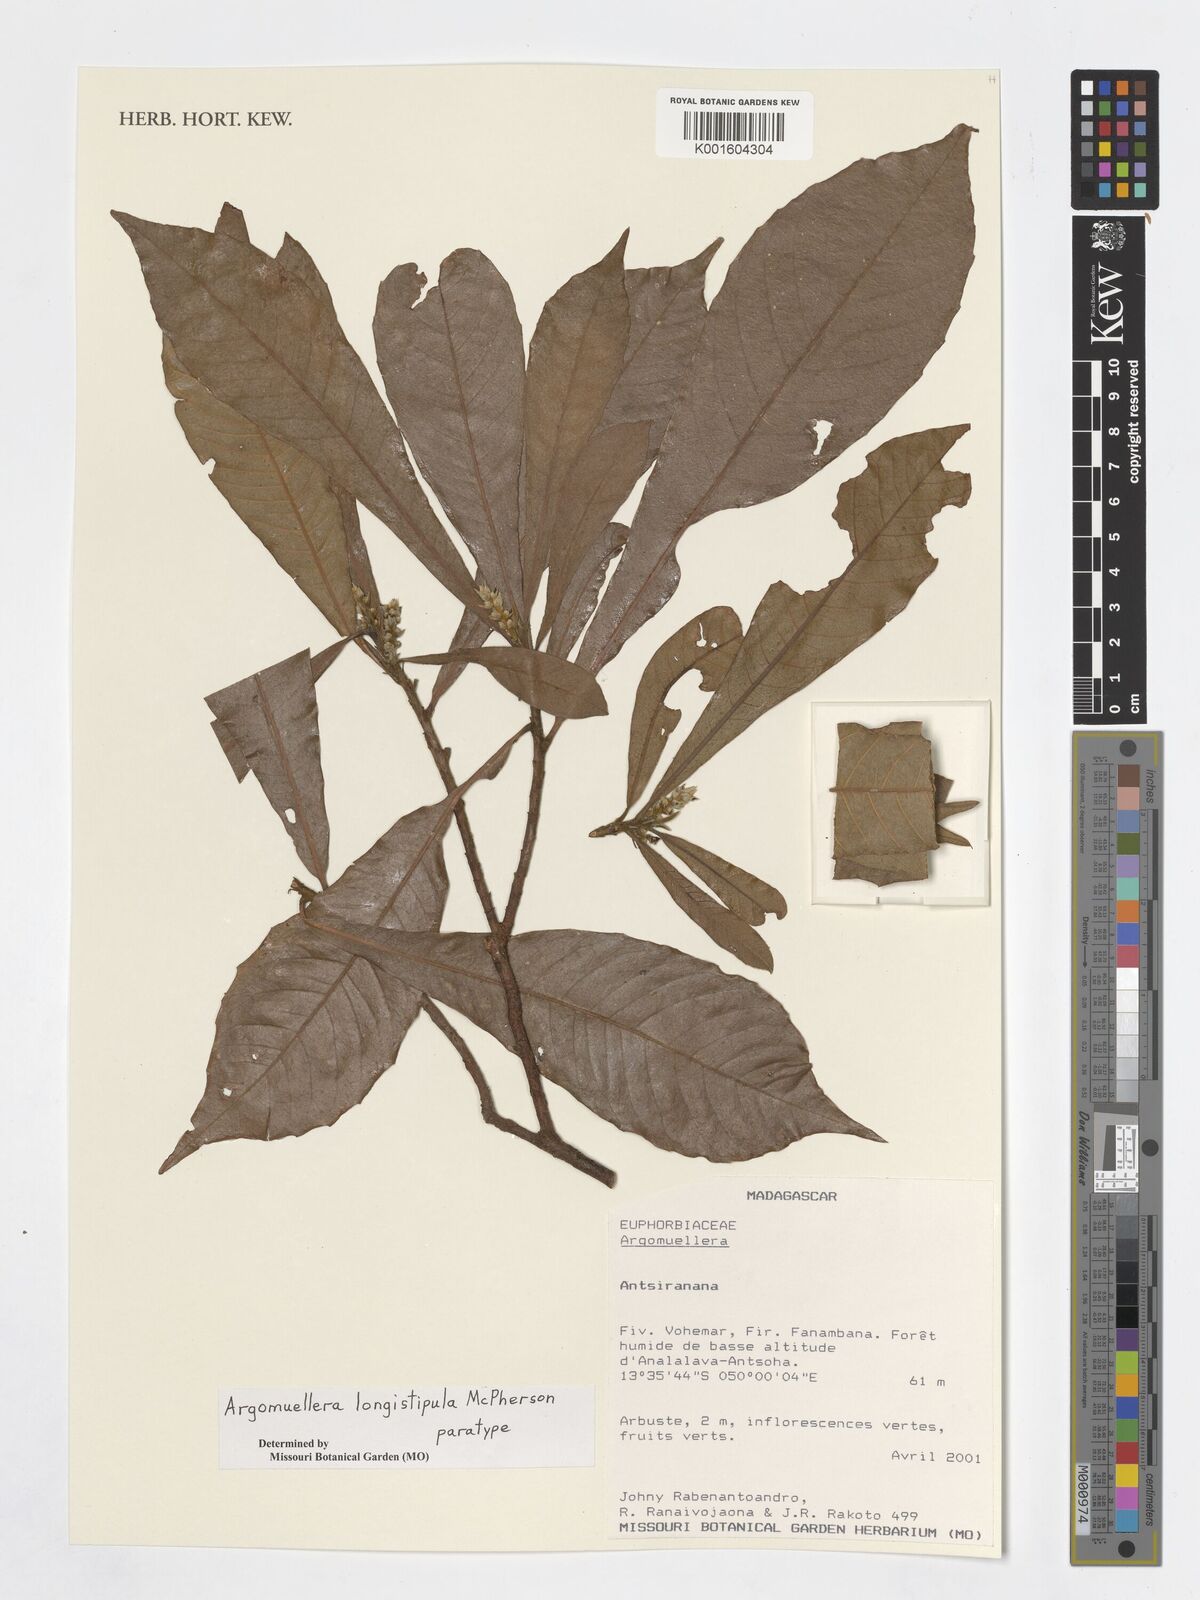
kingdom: Plantae
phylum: Tracheophyta
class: Magnoliopsida
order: Malpighiales
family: Euphorbiaceae
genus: Argomuellera
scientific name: Argomuellera longistipula
